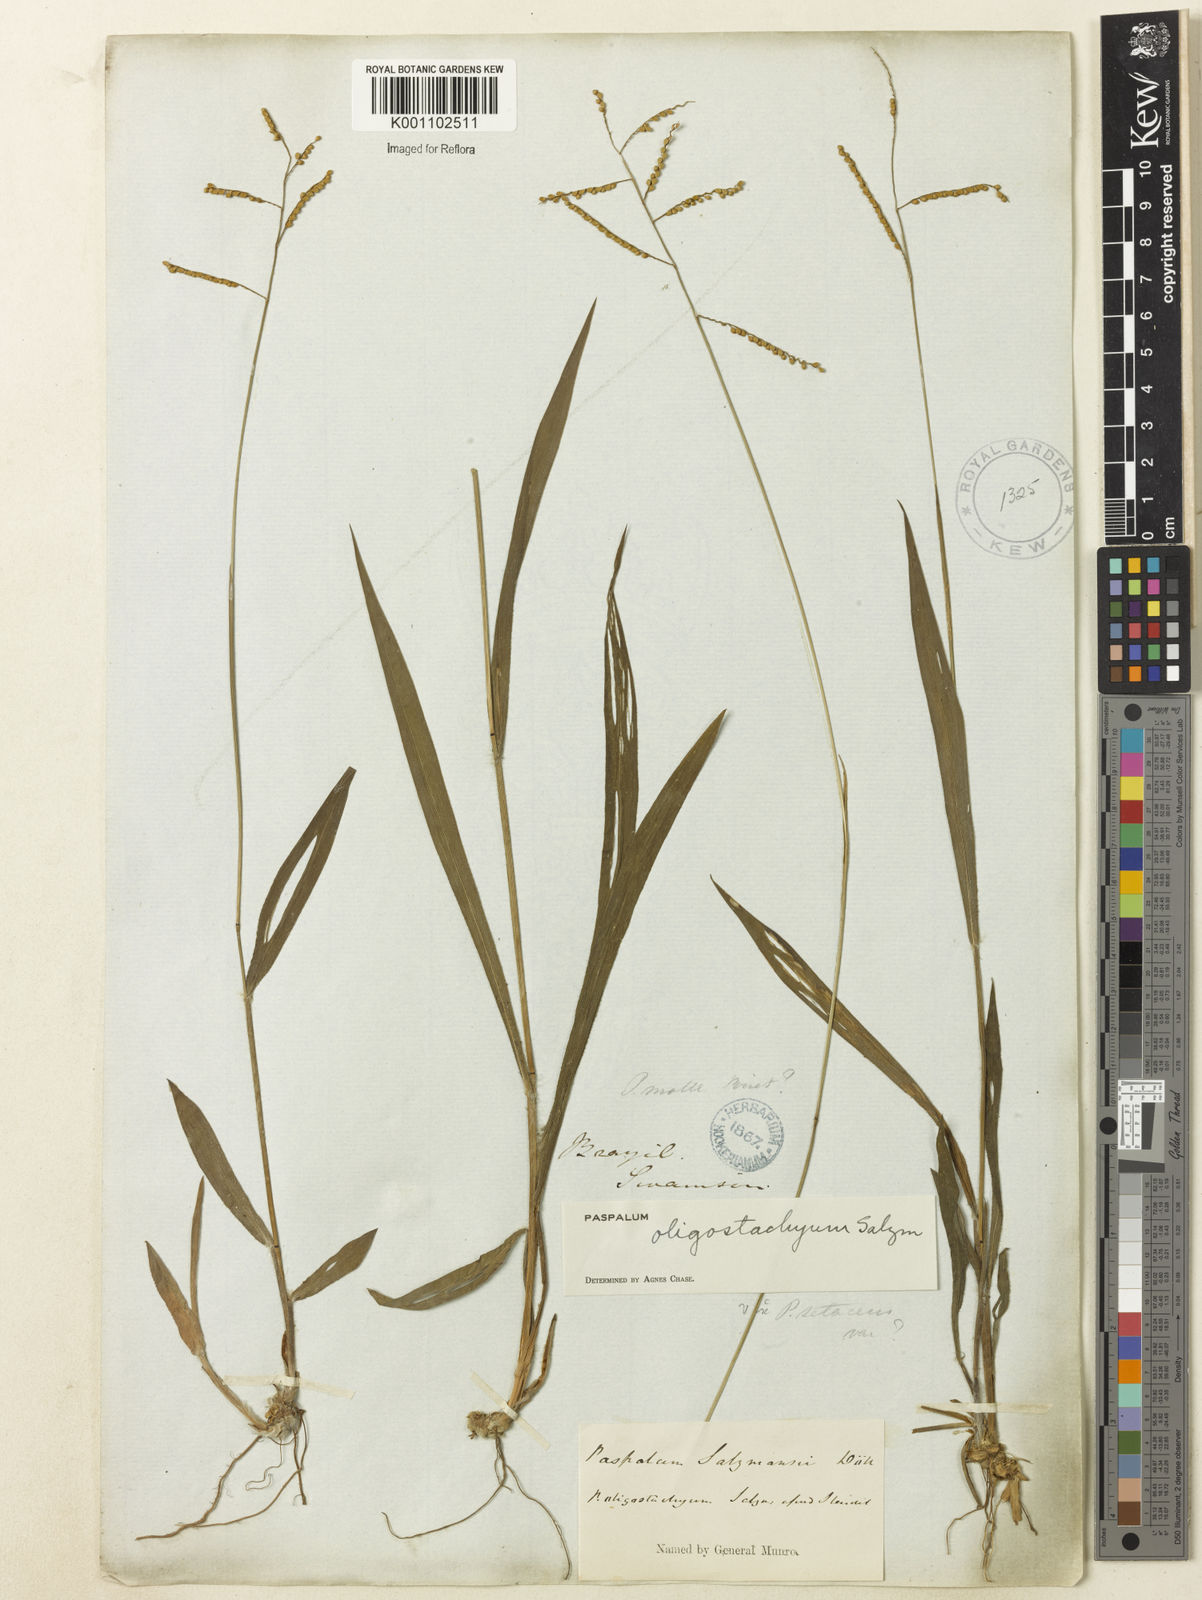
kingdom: Plantae
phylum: Tracheophyta
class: Liliopsida
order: Poales
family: Poaceae
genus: Paspalum
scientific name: Paspalum oligostachyum
